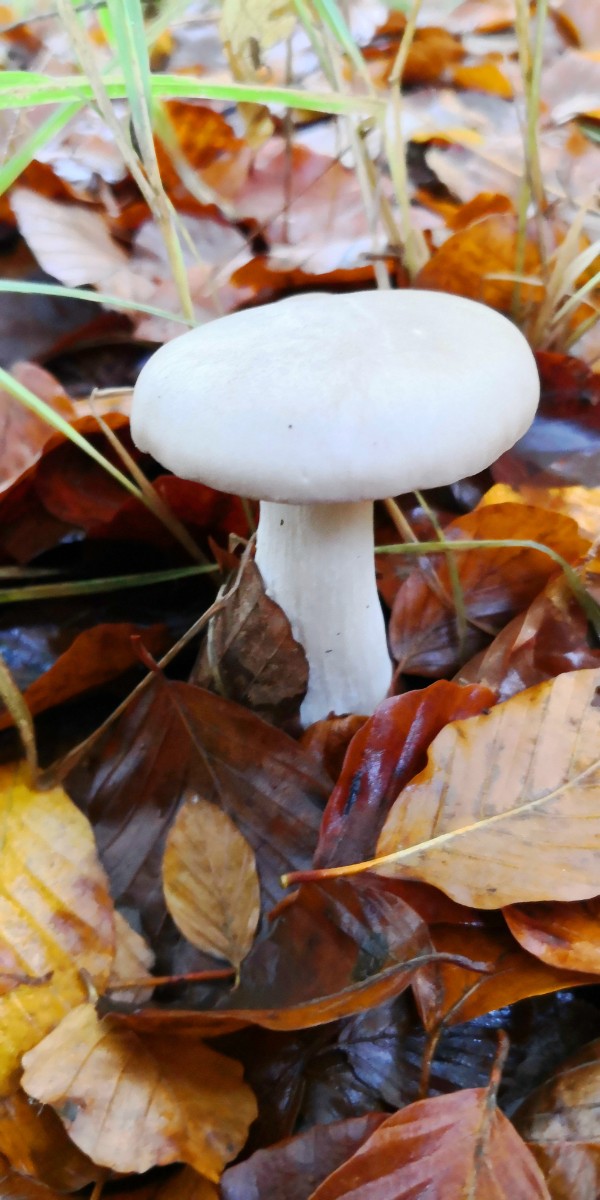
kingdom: Fungi
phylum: Basidiomycota
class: Agaricomycetes
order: Agaricales
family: Tricholomataceae
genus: Clitocybe
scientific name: Clitocybe nebularis
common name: tåge-tragthat
